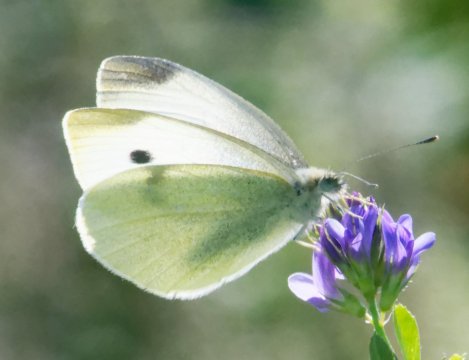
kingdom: Animalia
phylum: Arthropoda
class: Insecta
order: Lepidoptera
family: Pieridae
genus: Pieris
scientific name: Pieris rapae
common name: Cabbage White
